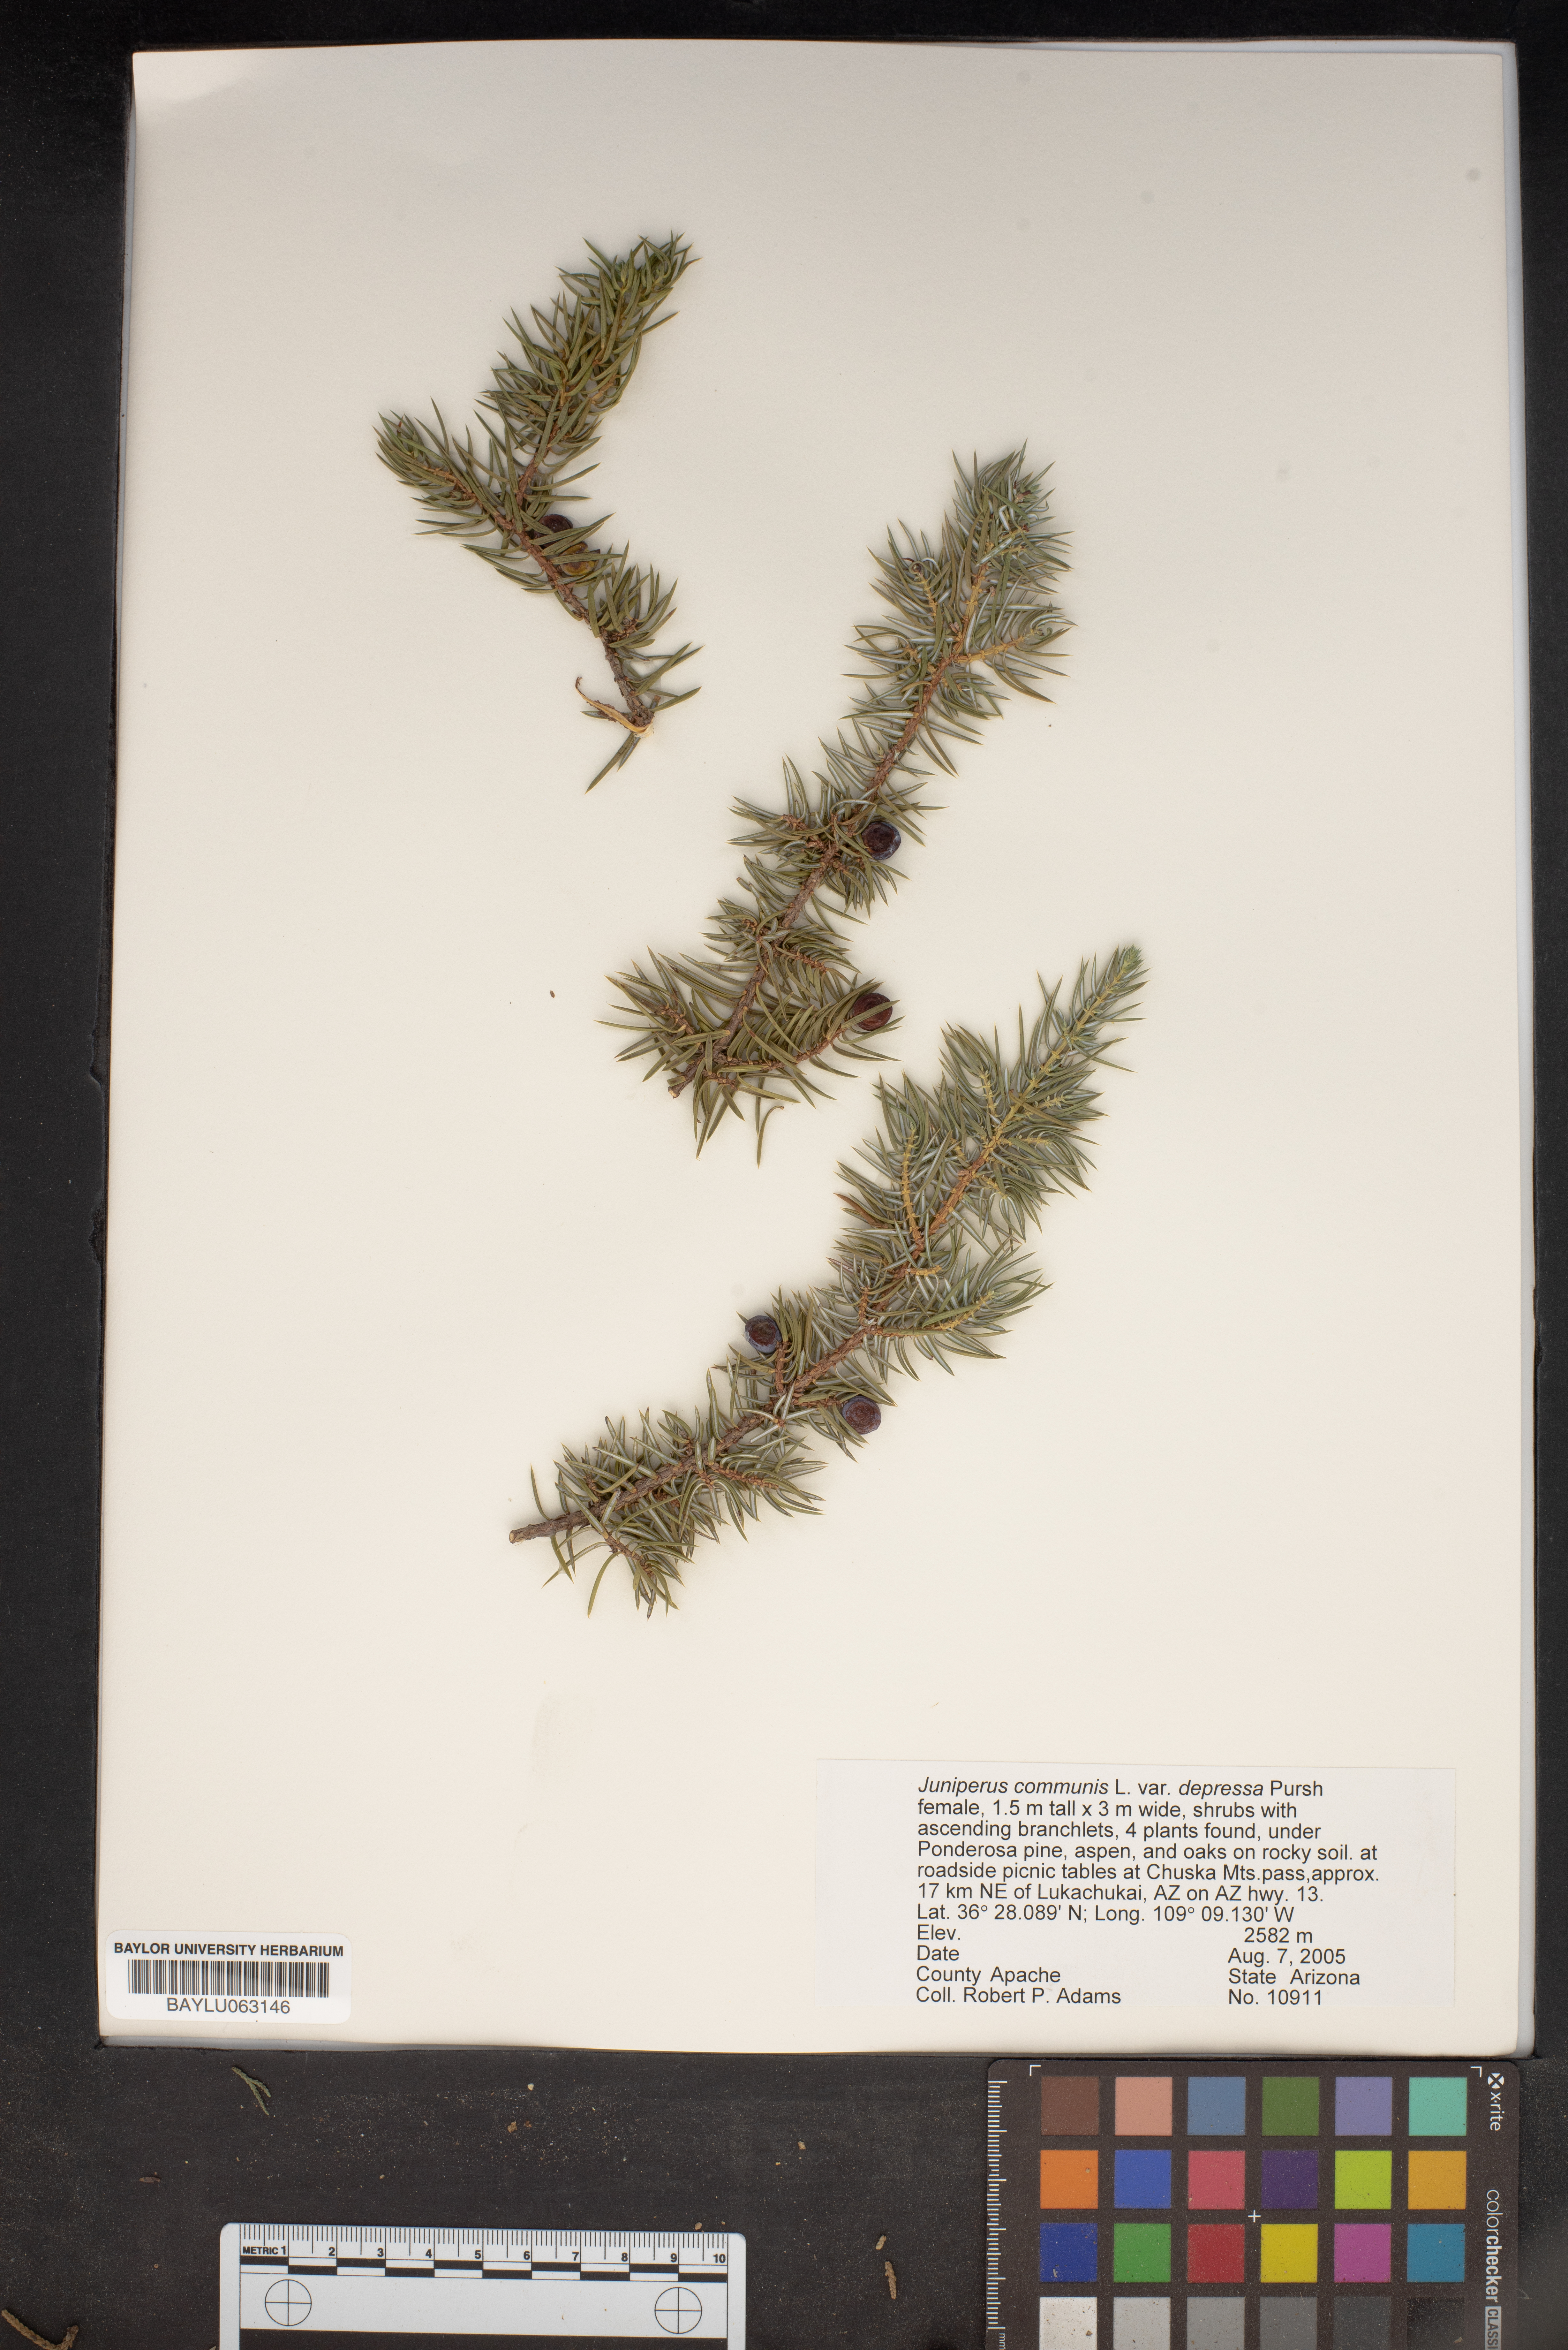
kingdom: Plantae
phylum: Tracheophyta
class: Pinopsida
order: Pinales
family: Cupressaceae
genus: Juniperus
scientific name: Juniperus communis
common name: Common juniper
